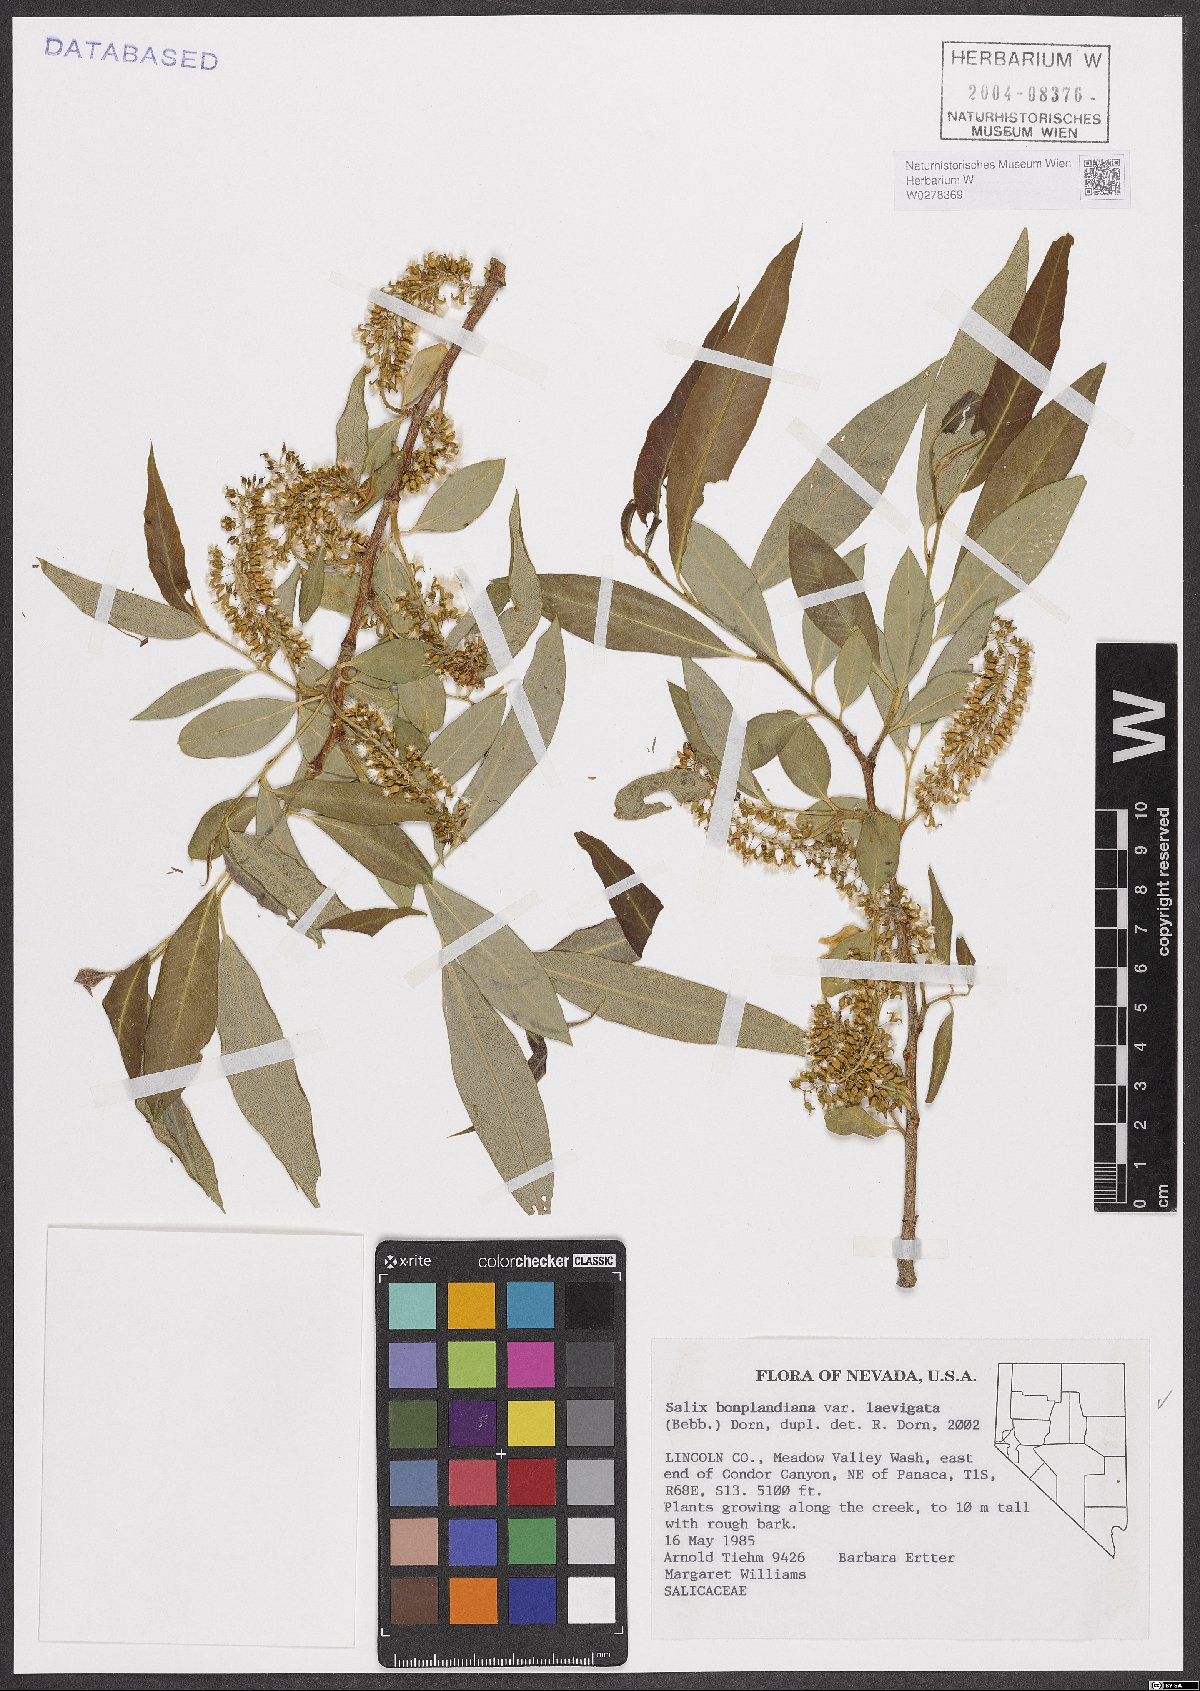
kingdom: Plantae
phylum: Tracheophyta
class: Magnoliopsida
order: Malpighiales
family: Salicaceae
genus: Salix
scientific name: Salix laevigata
